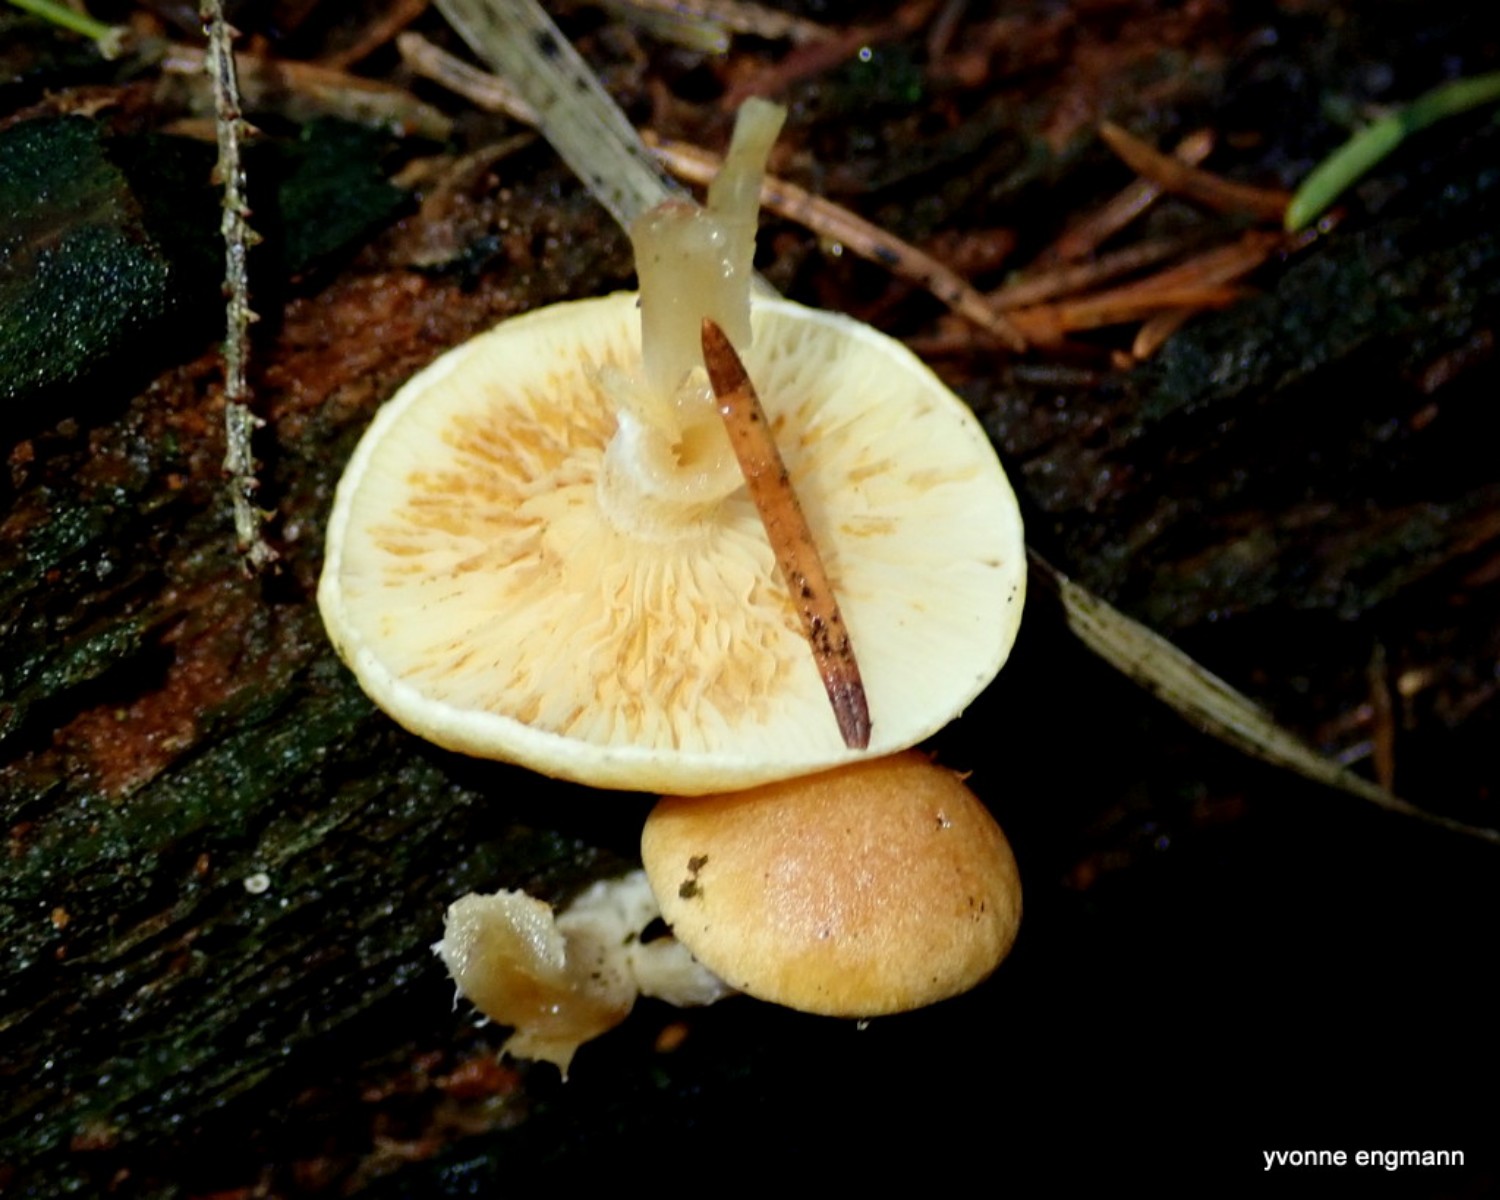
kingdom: Fungi
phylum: Basidiomycota
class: Agaricomycetes
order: Agaricales
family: Hymenogastraceae
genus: Gymnopilus
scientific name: Gymnopilus penetrans
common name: plettet flammehat
